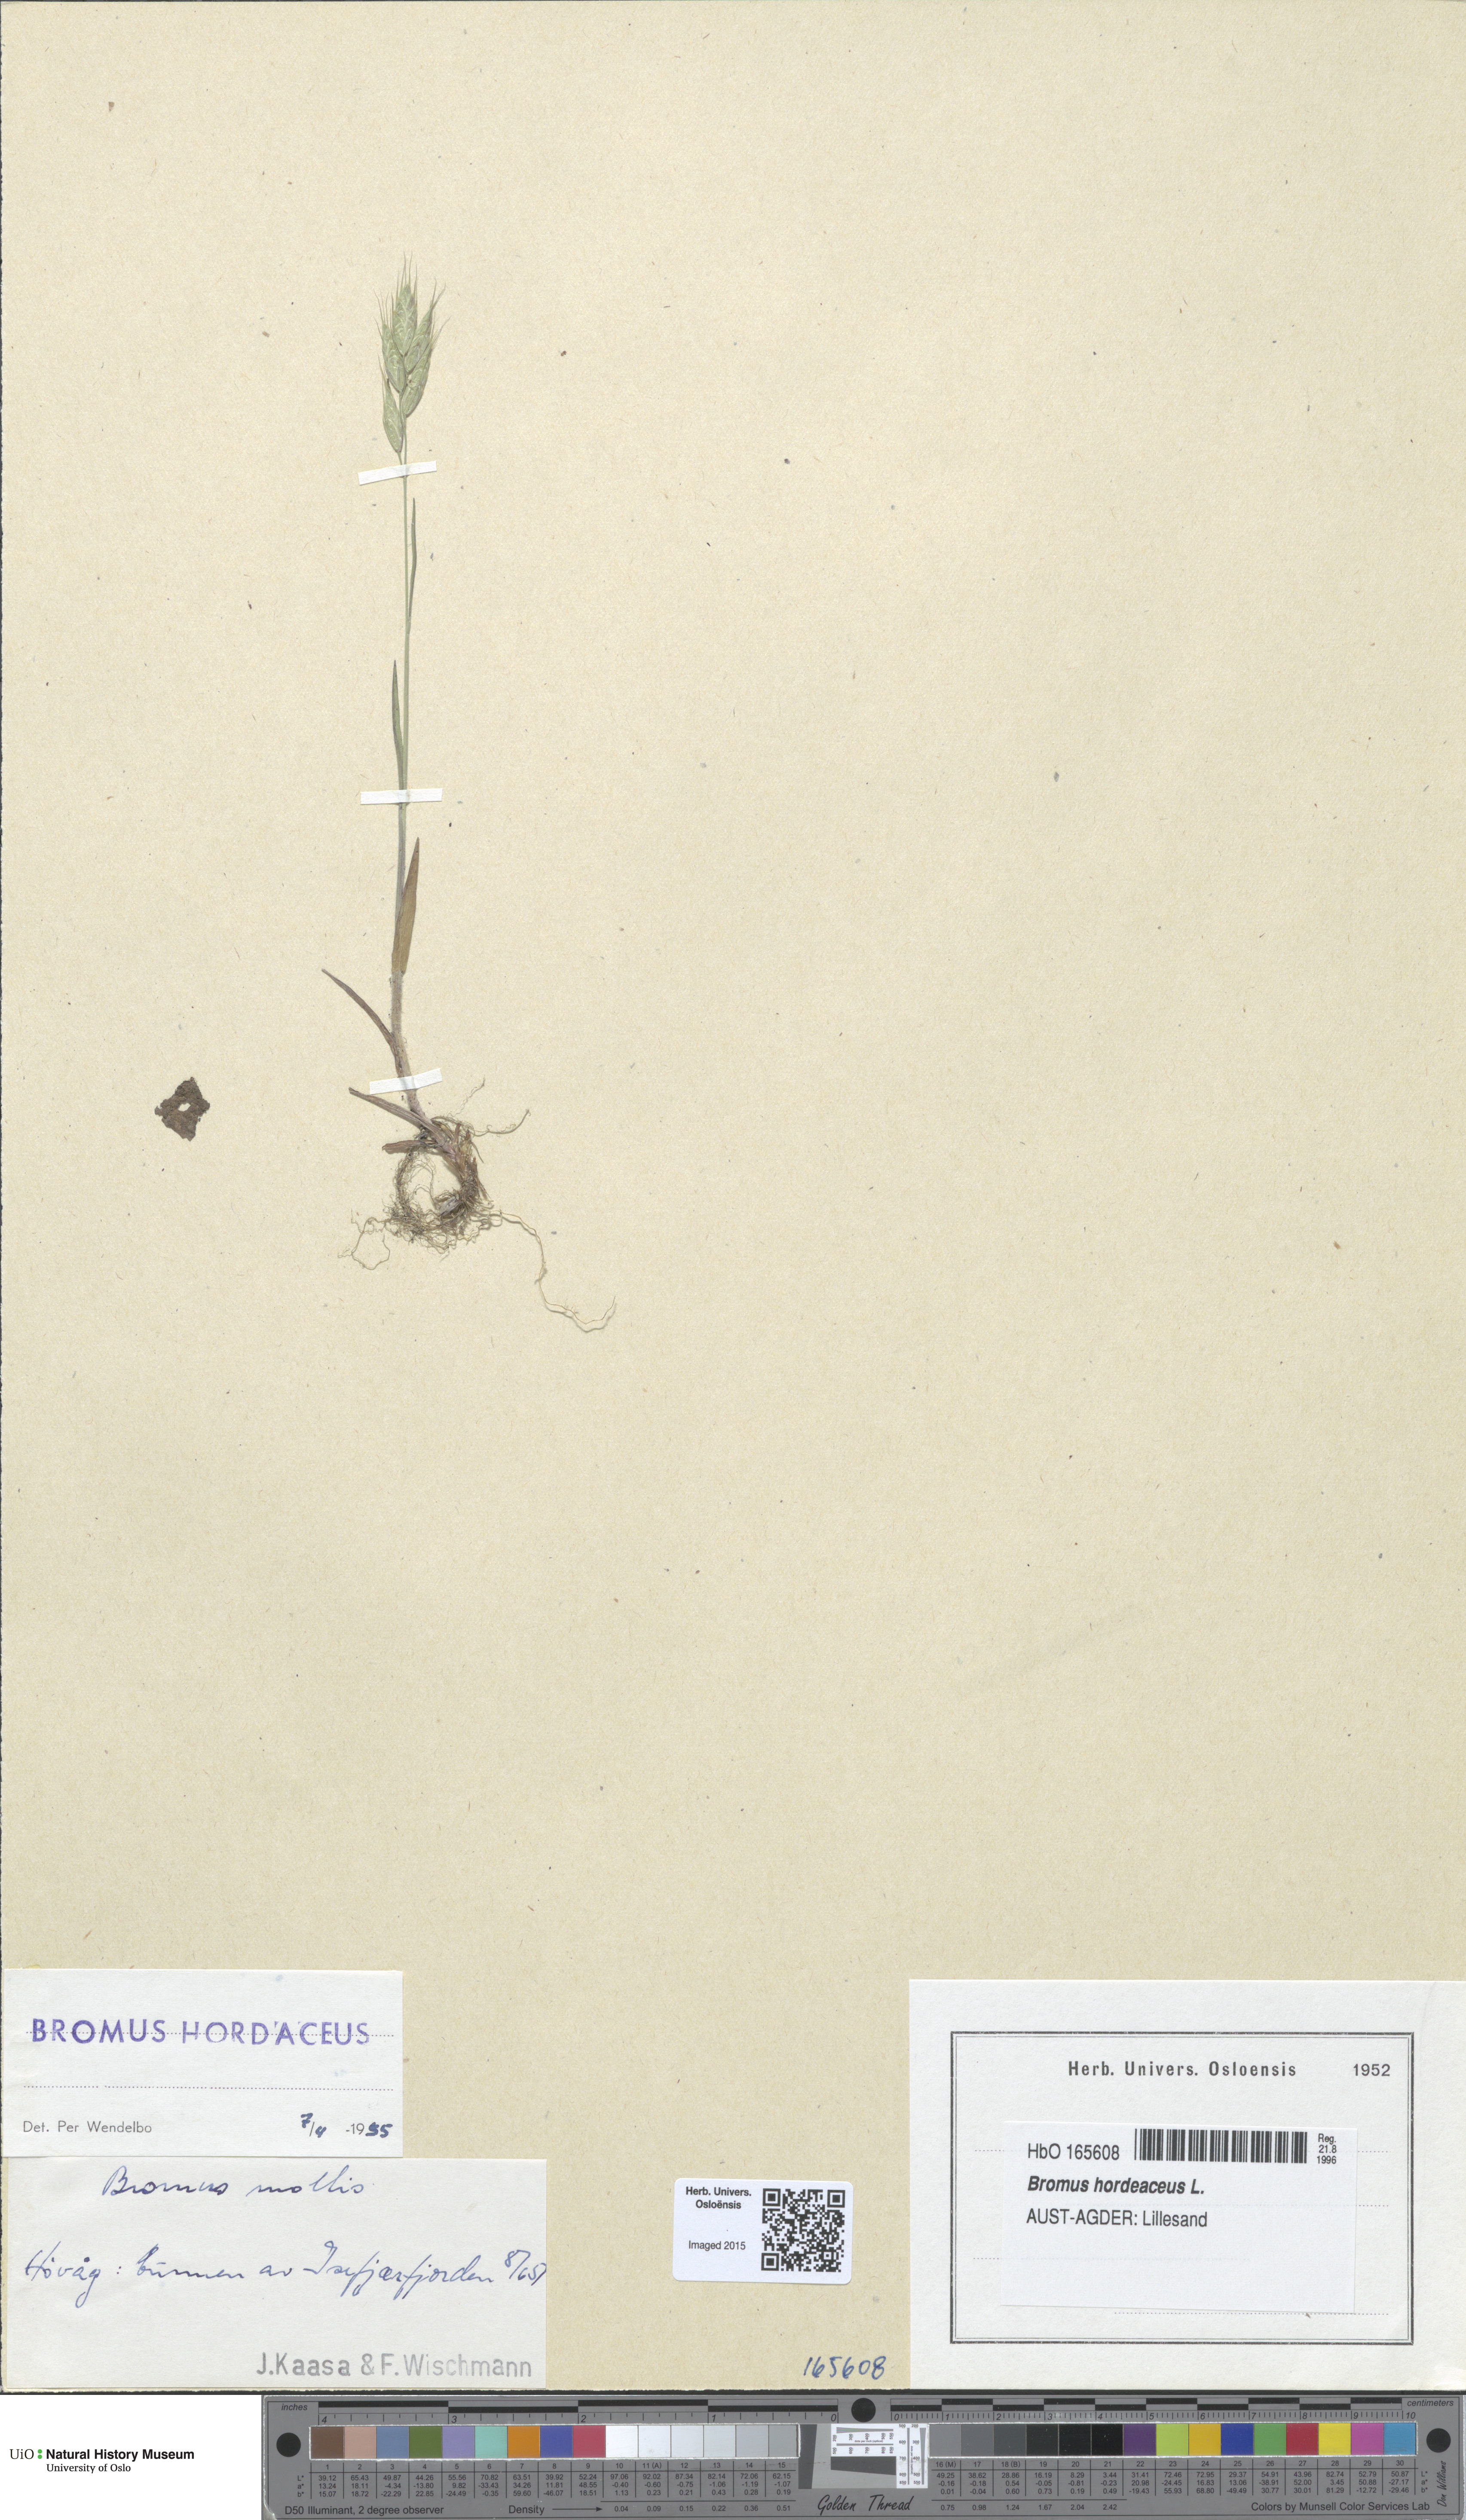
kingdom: Plantae
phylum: Tracheophyta
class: Liliopsida
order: Poales
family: Poaceae
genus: Bromus
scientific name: Bromus hordeaceus
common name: Soft brome
